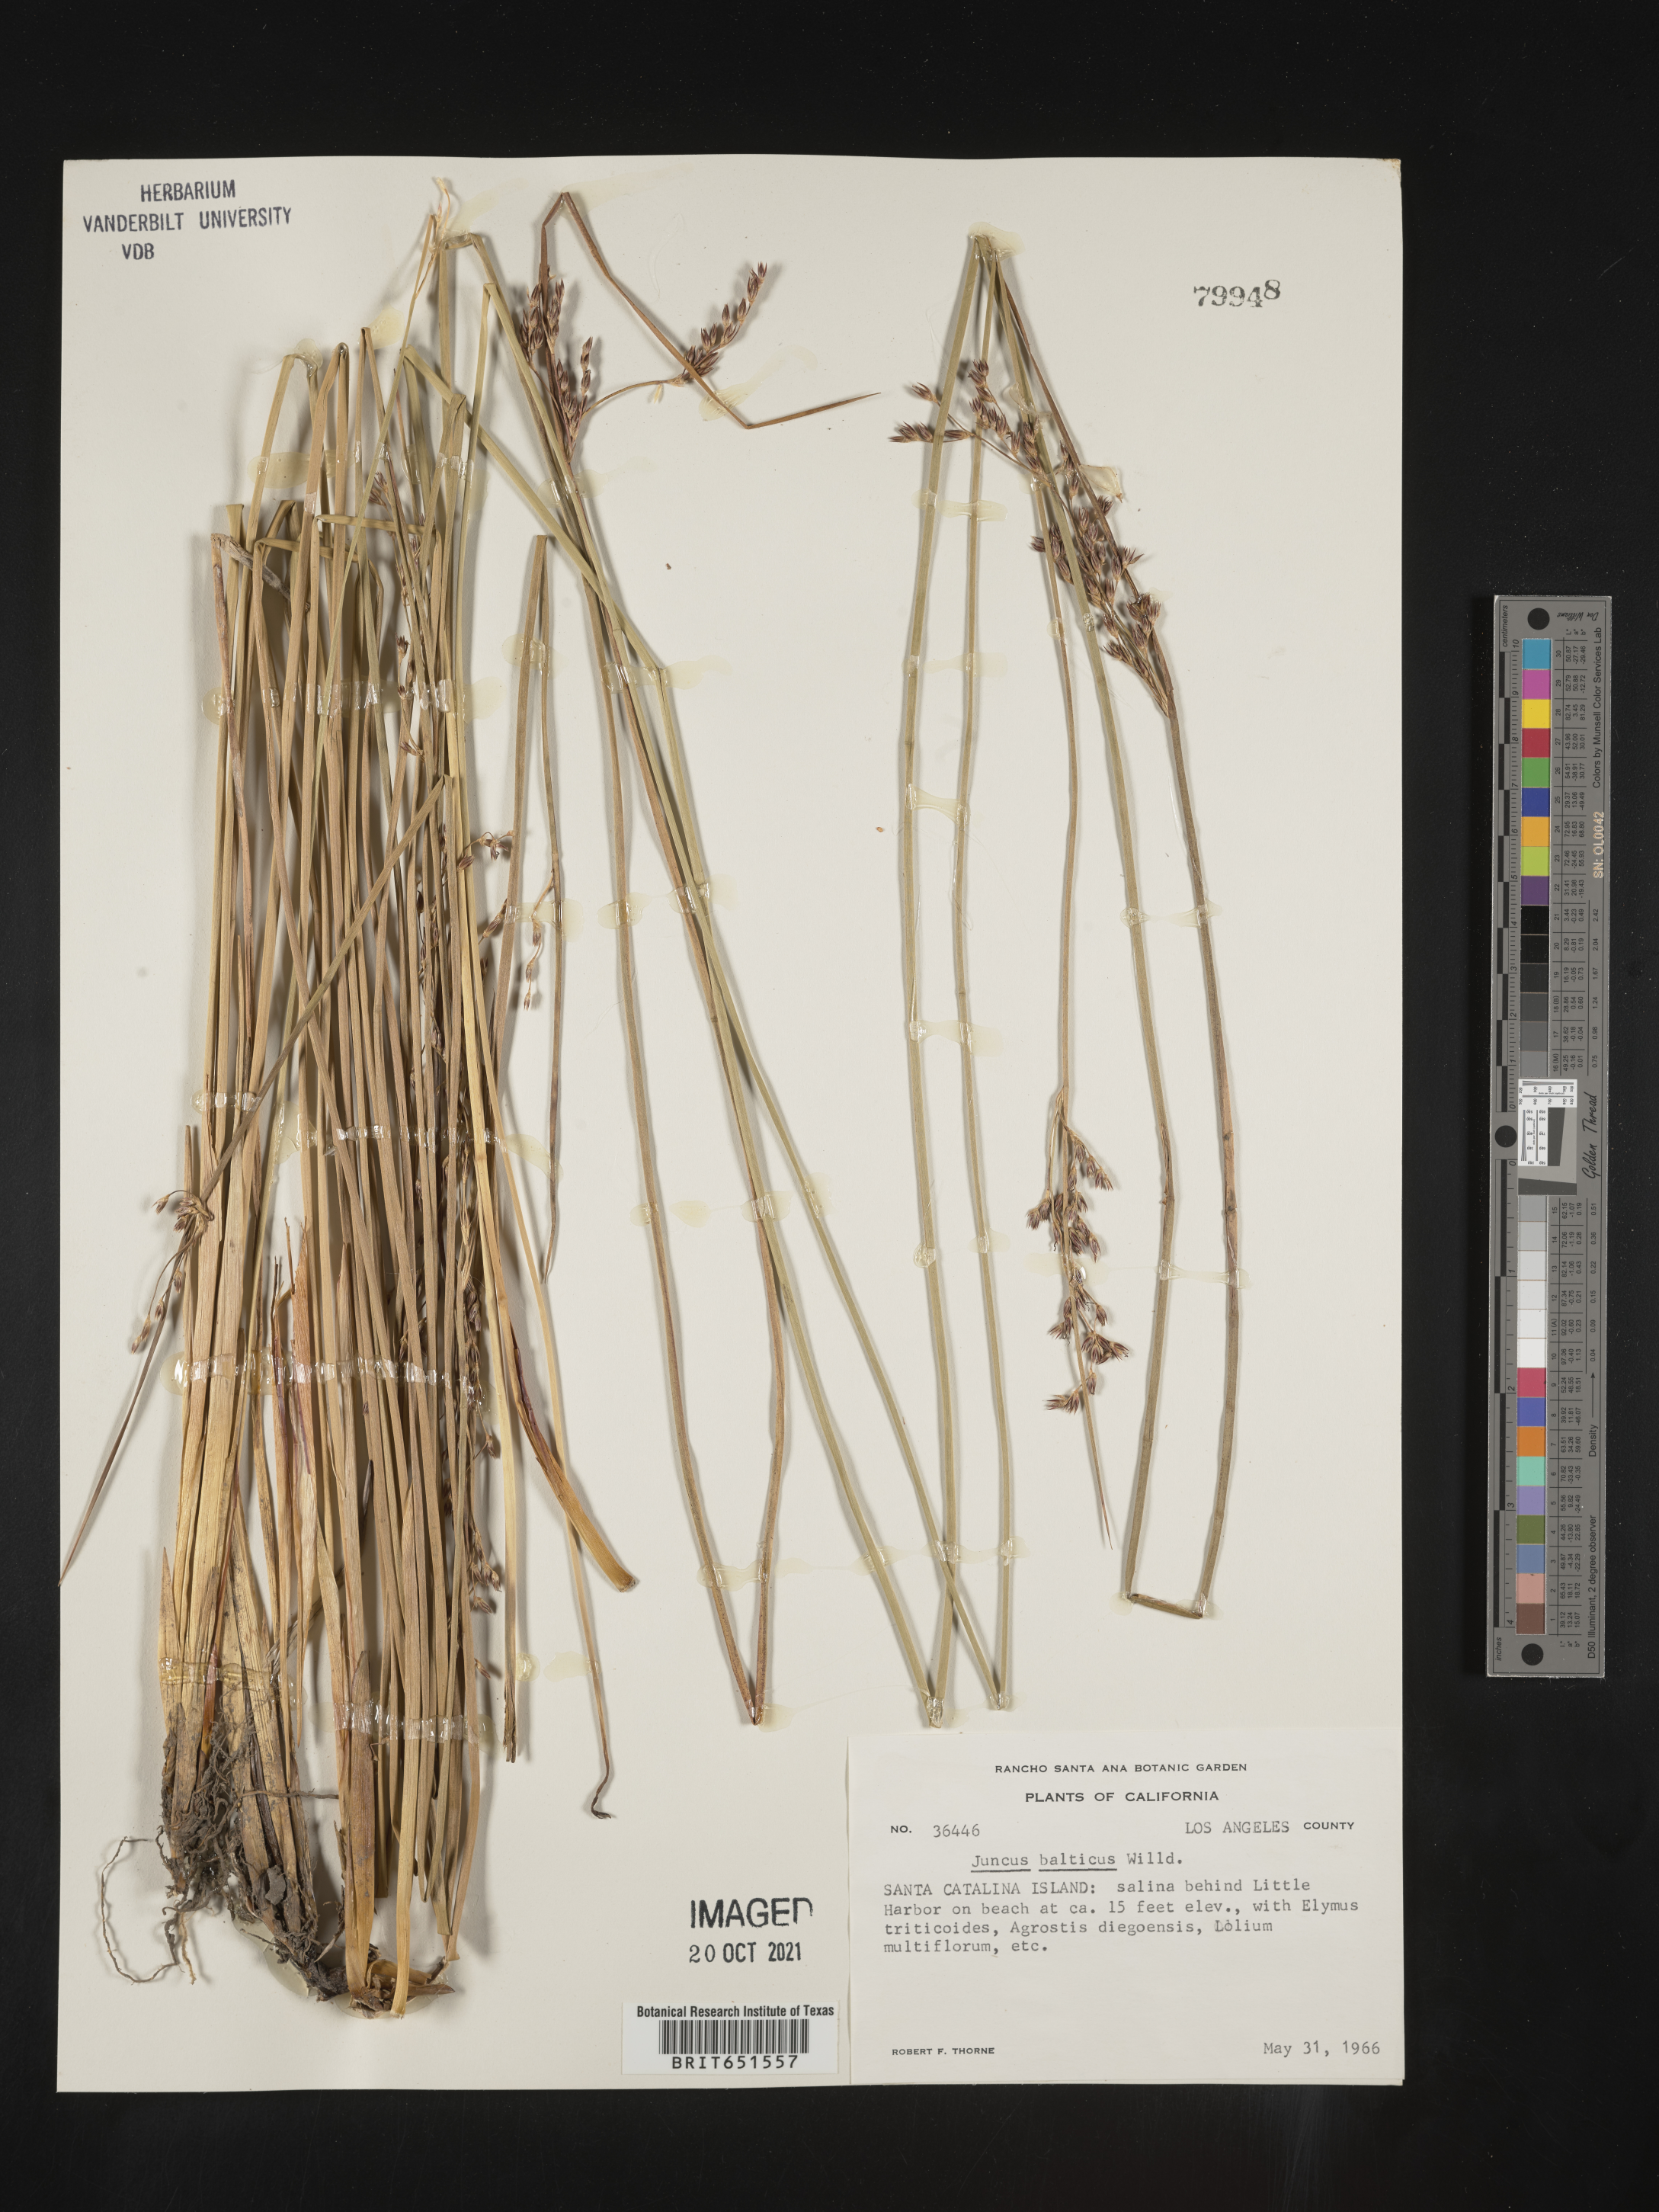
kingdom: Plantae
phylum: Tracheophyta
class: Liliopsida
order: Poales
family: Juncaceae
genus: Juncus
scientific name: Juncus balticus
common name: Baltic rush
